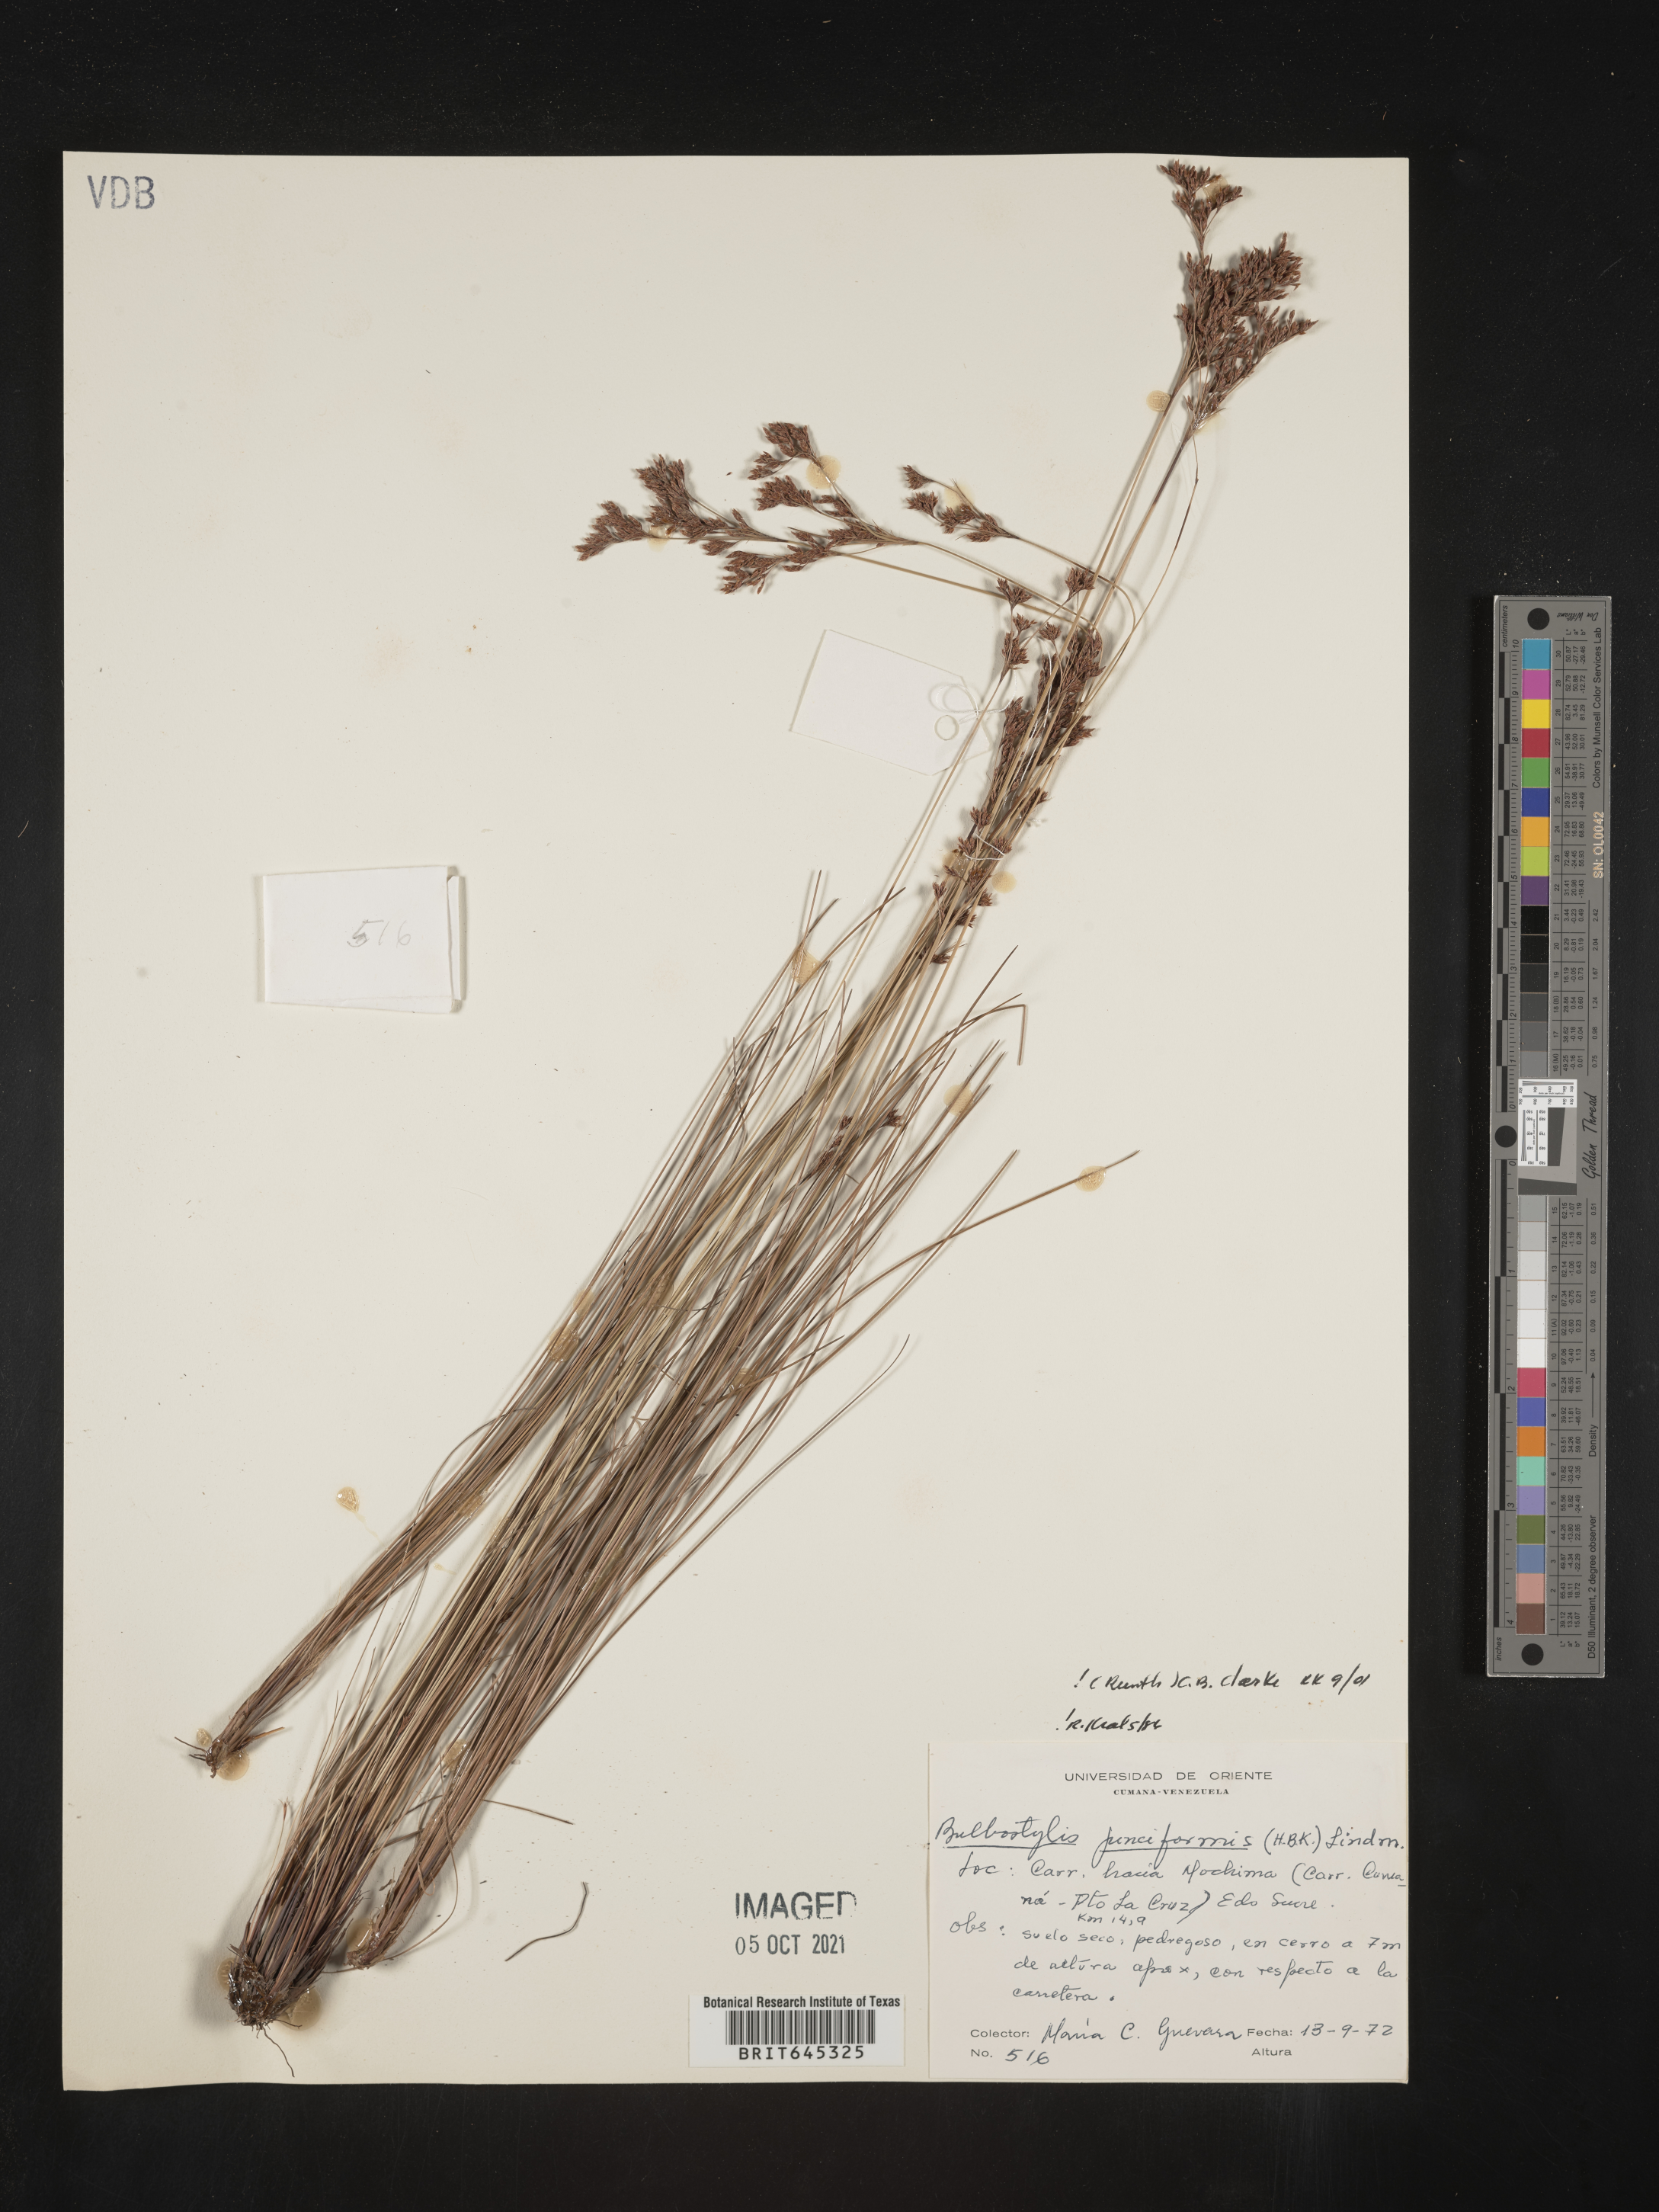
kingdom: Plantae
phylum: Tracheophyta
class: Liliopsida
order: Poales
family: Cyperaceae
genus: Bulbostylis
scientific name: Bulbostylis junciformis
